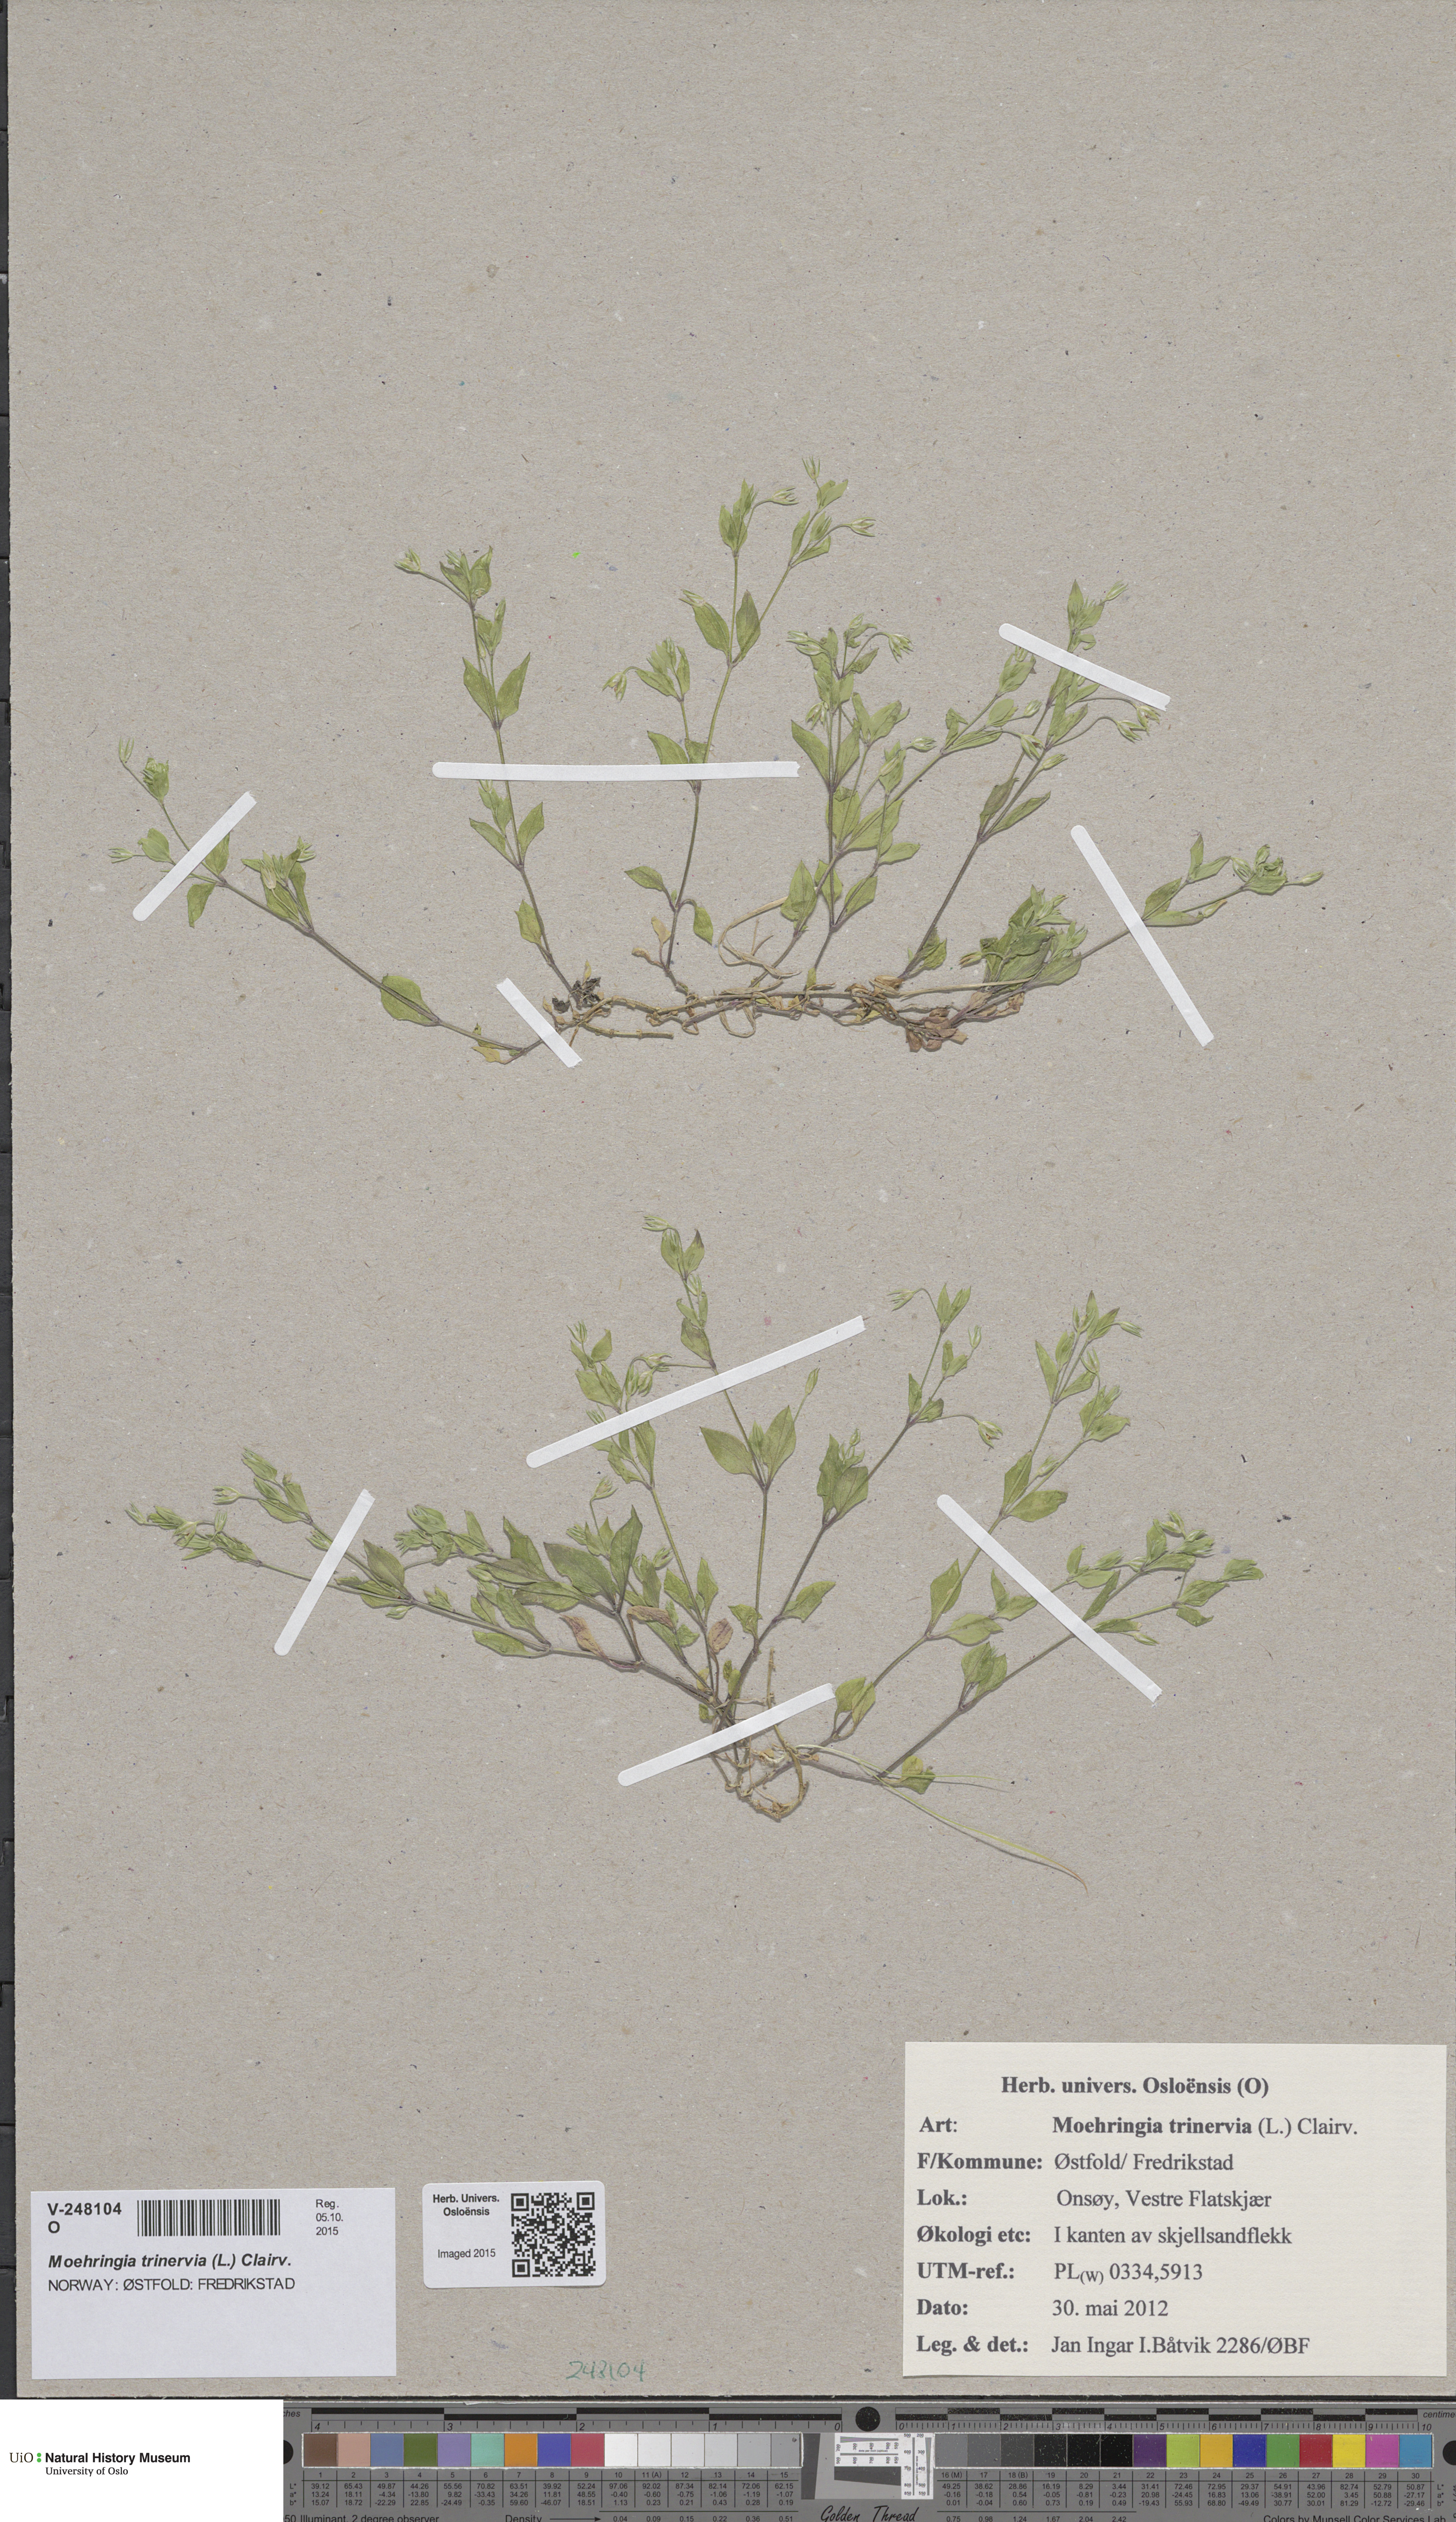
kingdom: Plantae
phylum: Tracheophyta
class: Magnoliopsida
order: Caryophyllales
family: Caryophyllaceae
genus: Moehringia
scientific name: Moehringia trinervia
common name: Three-nerved sandwort
